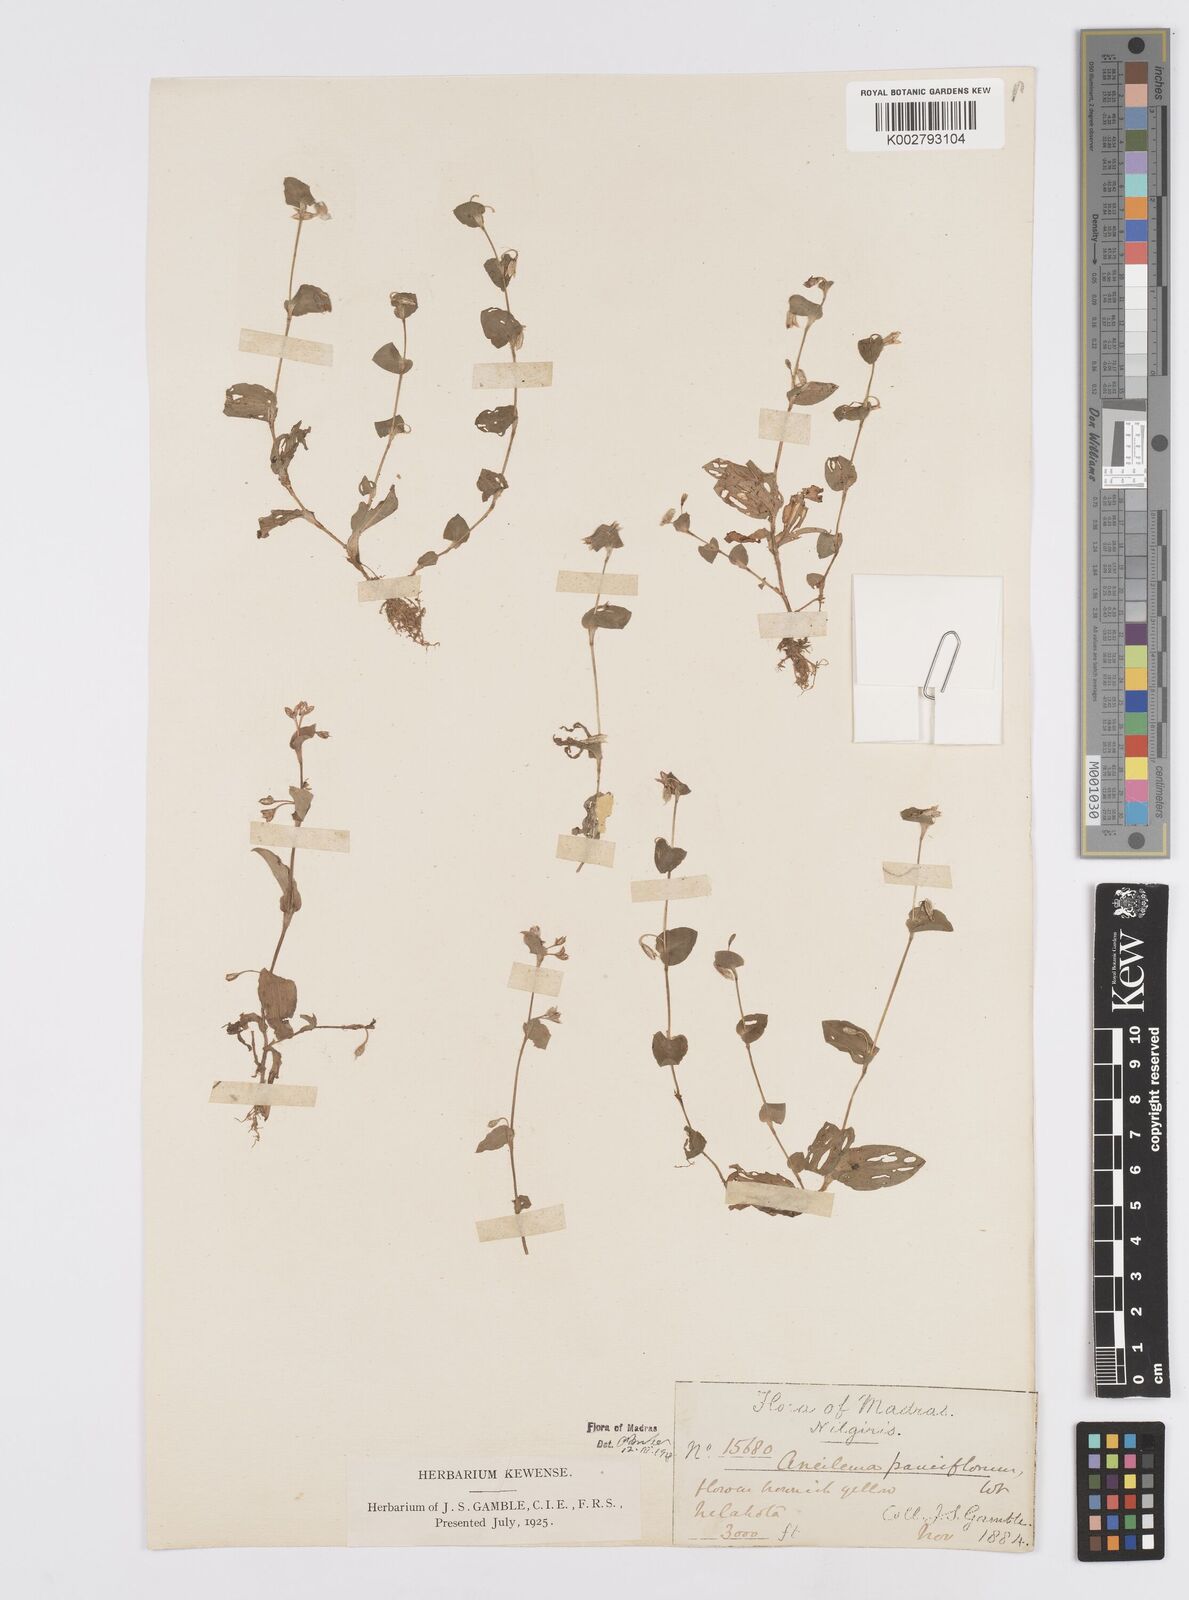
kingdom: Plantae
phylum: Tracheophyta
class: Liliopsida
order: Commelinales
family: Commelinaceae
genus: Murdannia
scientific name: Murdannia pauciflora
